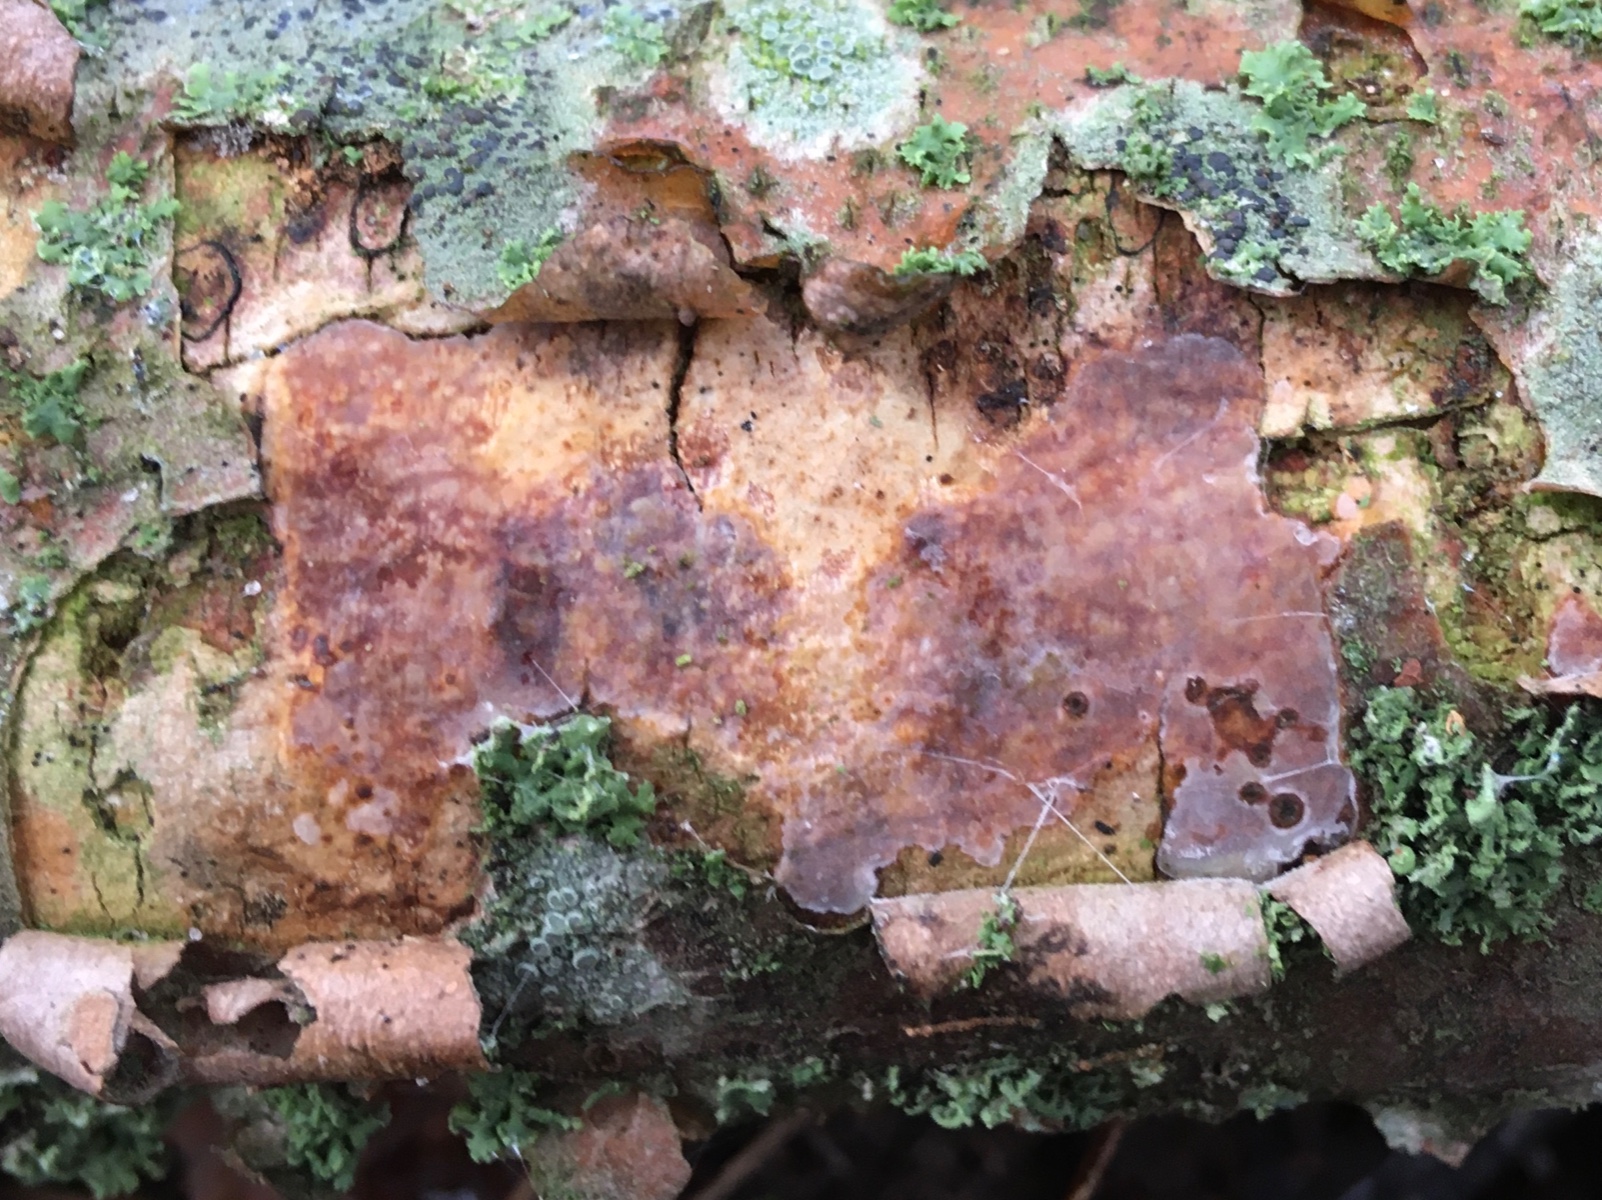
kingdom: Fungi
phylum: Basidiomycota
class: Agaricomycetes
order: Corticiales
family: Vuilleminiaceae
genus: Vuilleminia
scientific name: Vuilleminia comedens
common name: almindelig barksprænger
